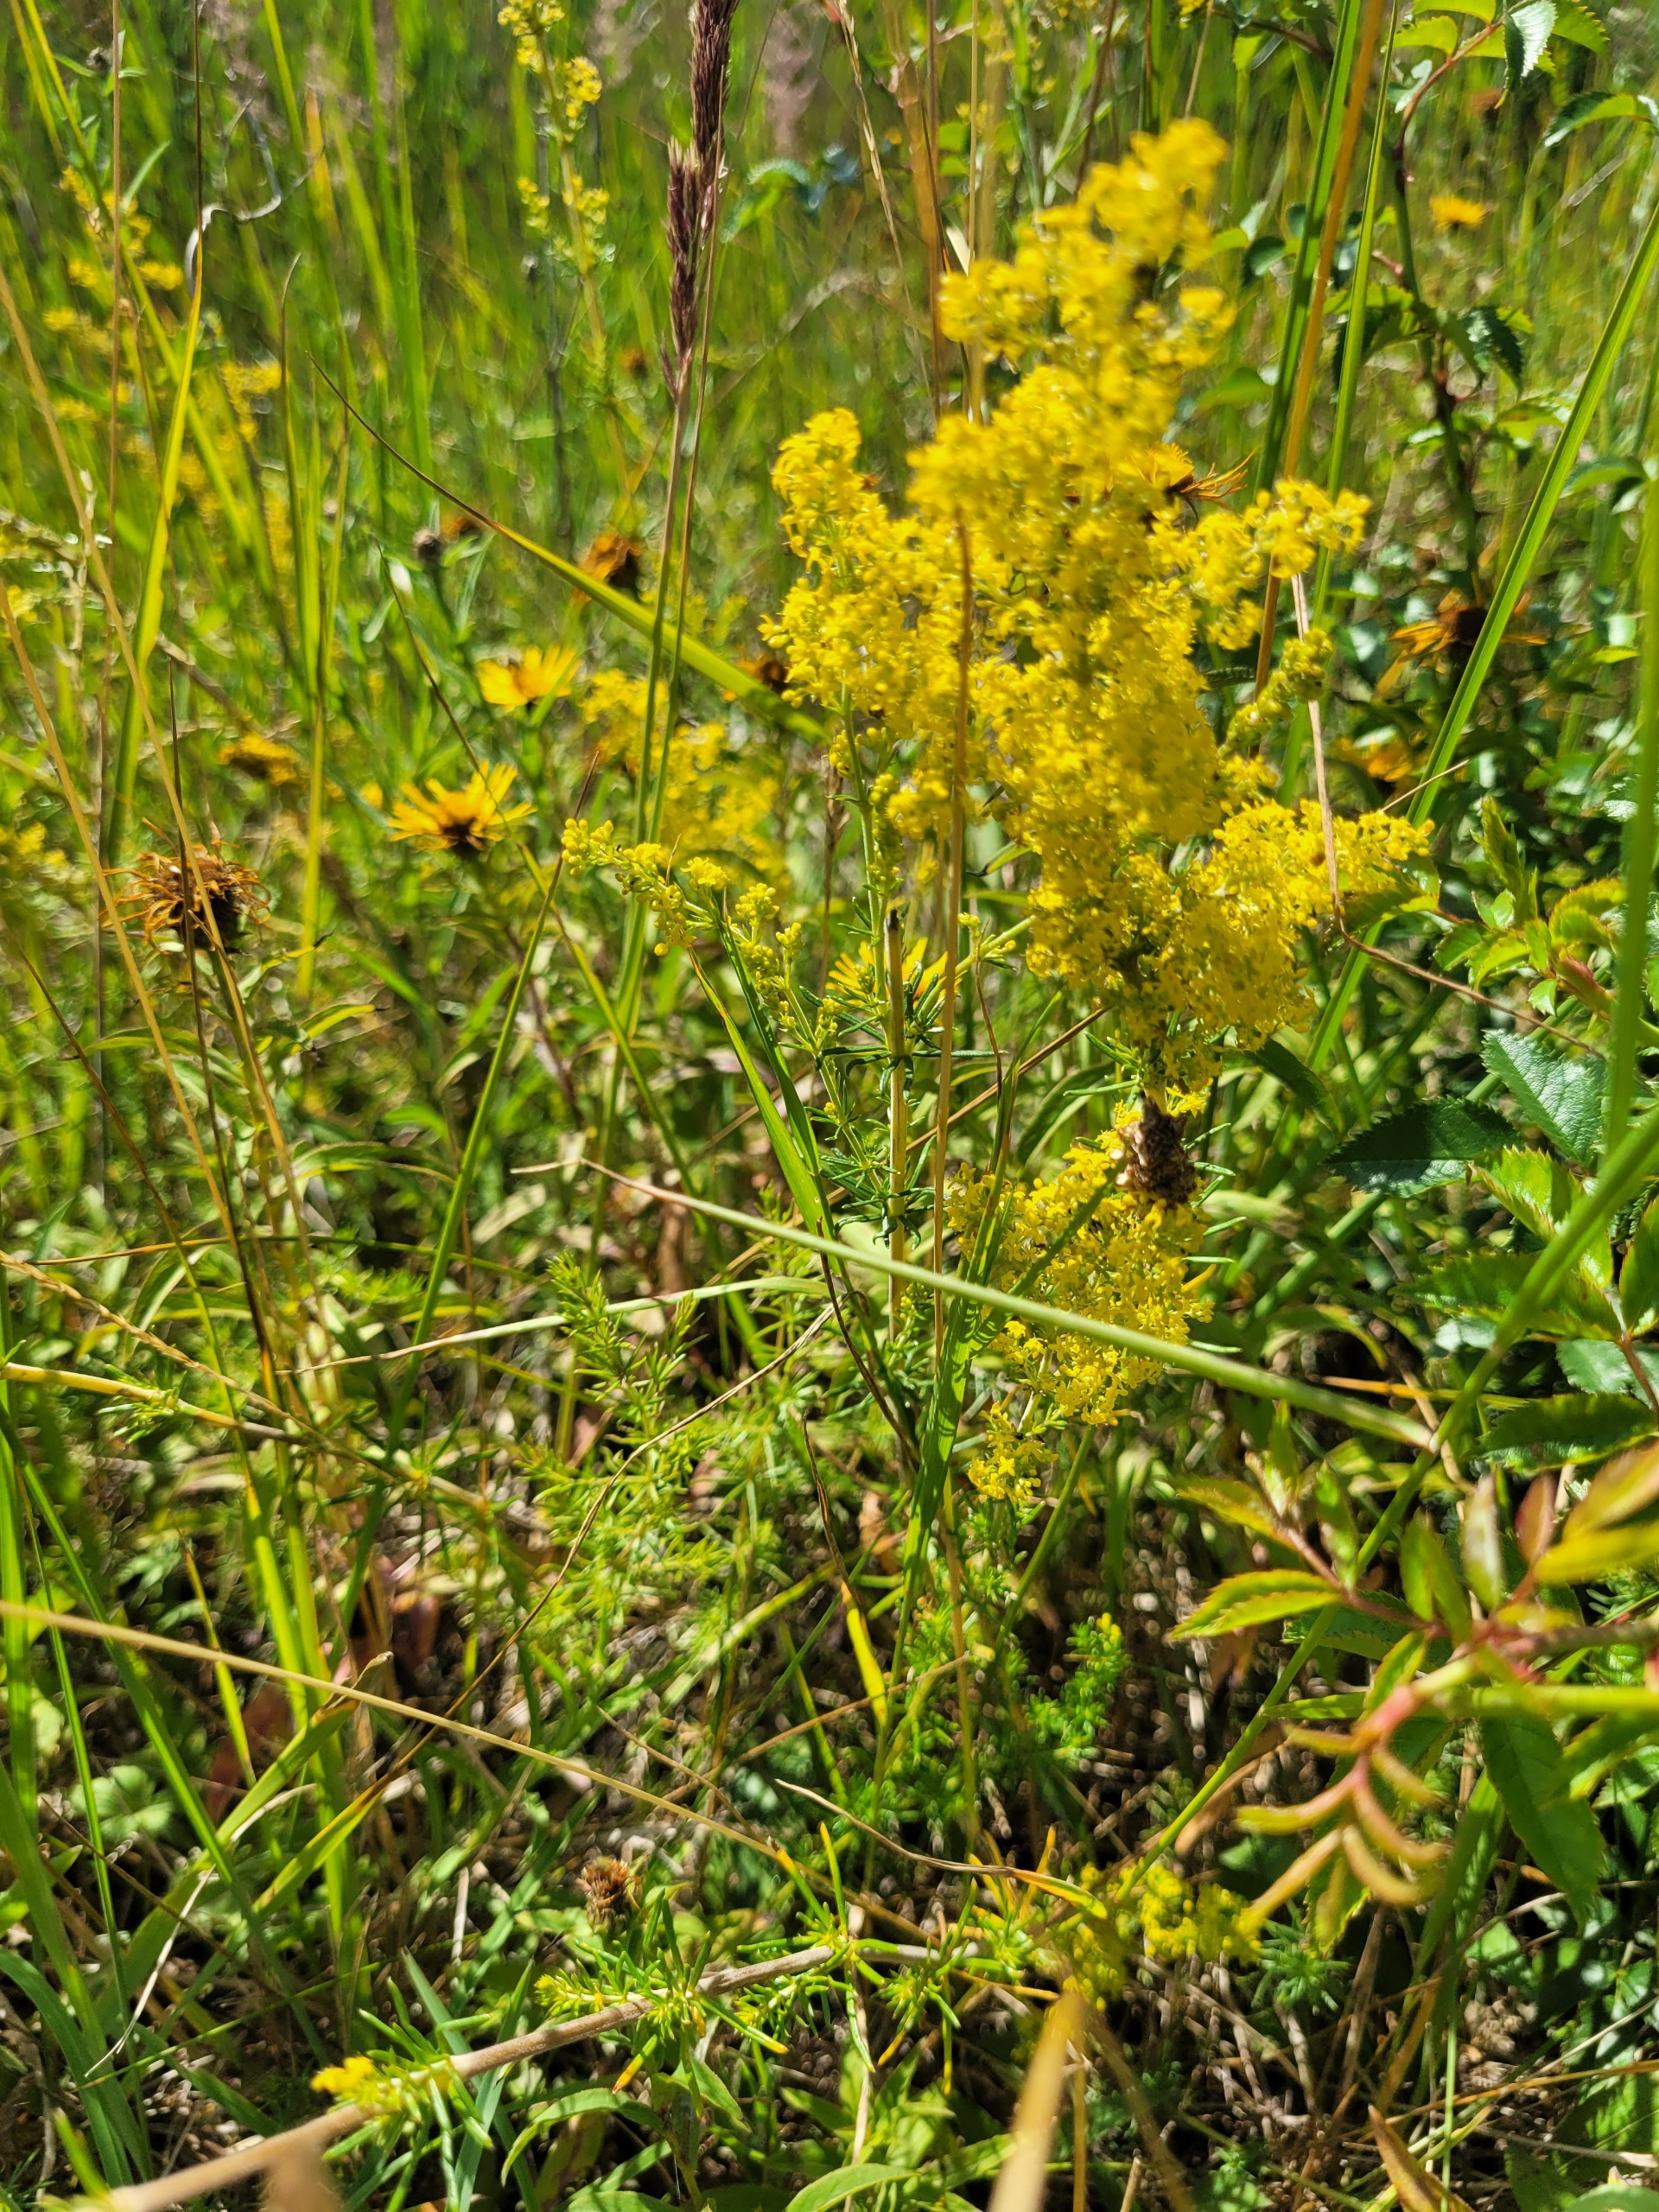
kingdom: Plantae
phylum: Tracheophyta
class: Magnoliopsida
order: Gentianales
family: Rubiaceae
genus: Galium
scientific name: Galium verum
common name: Gul snerre
